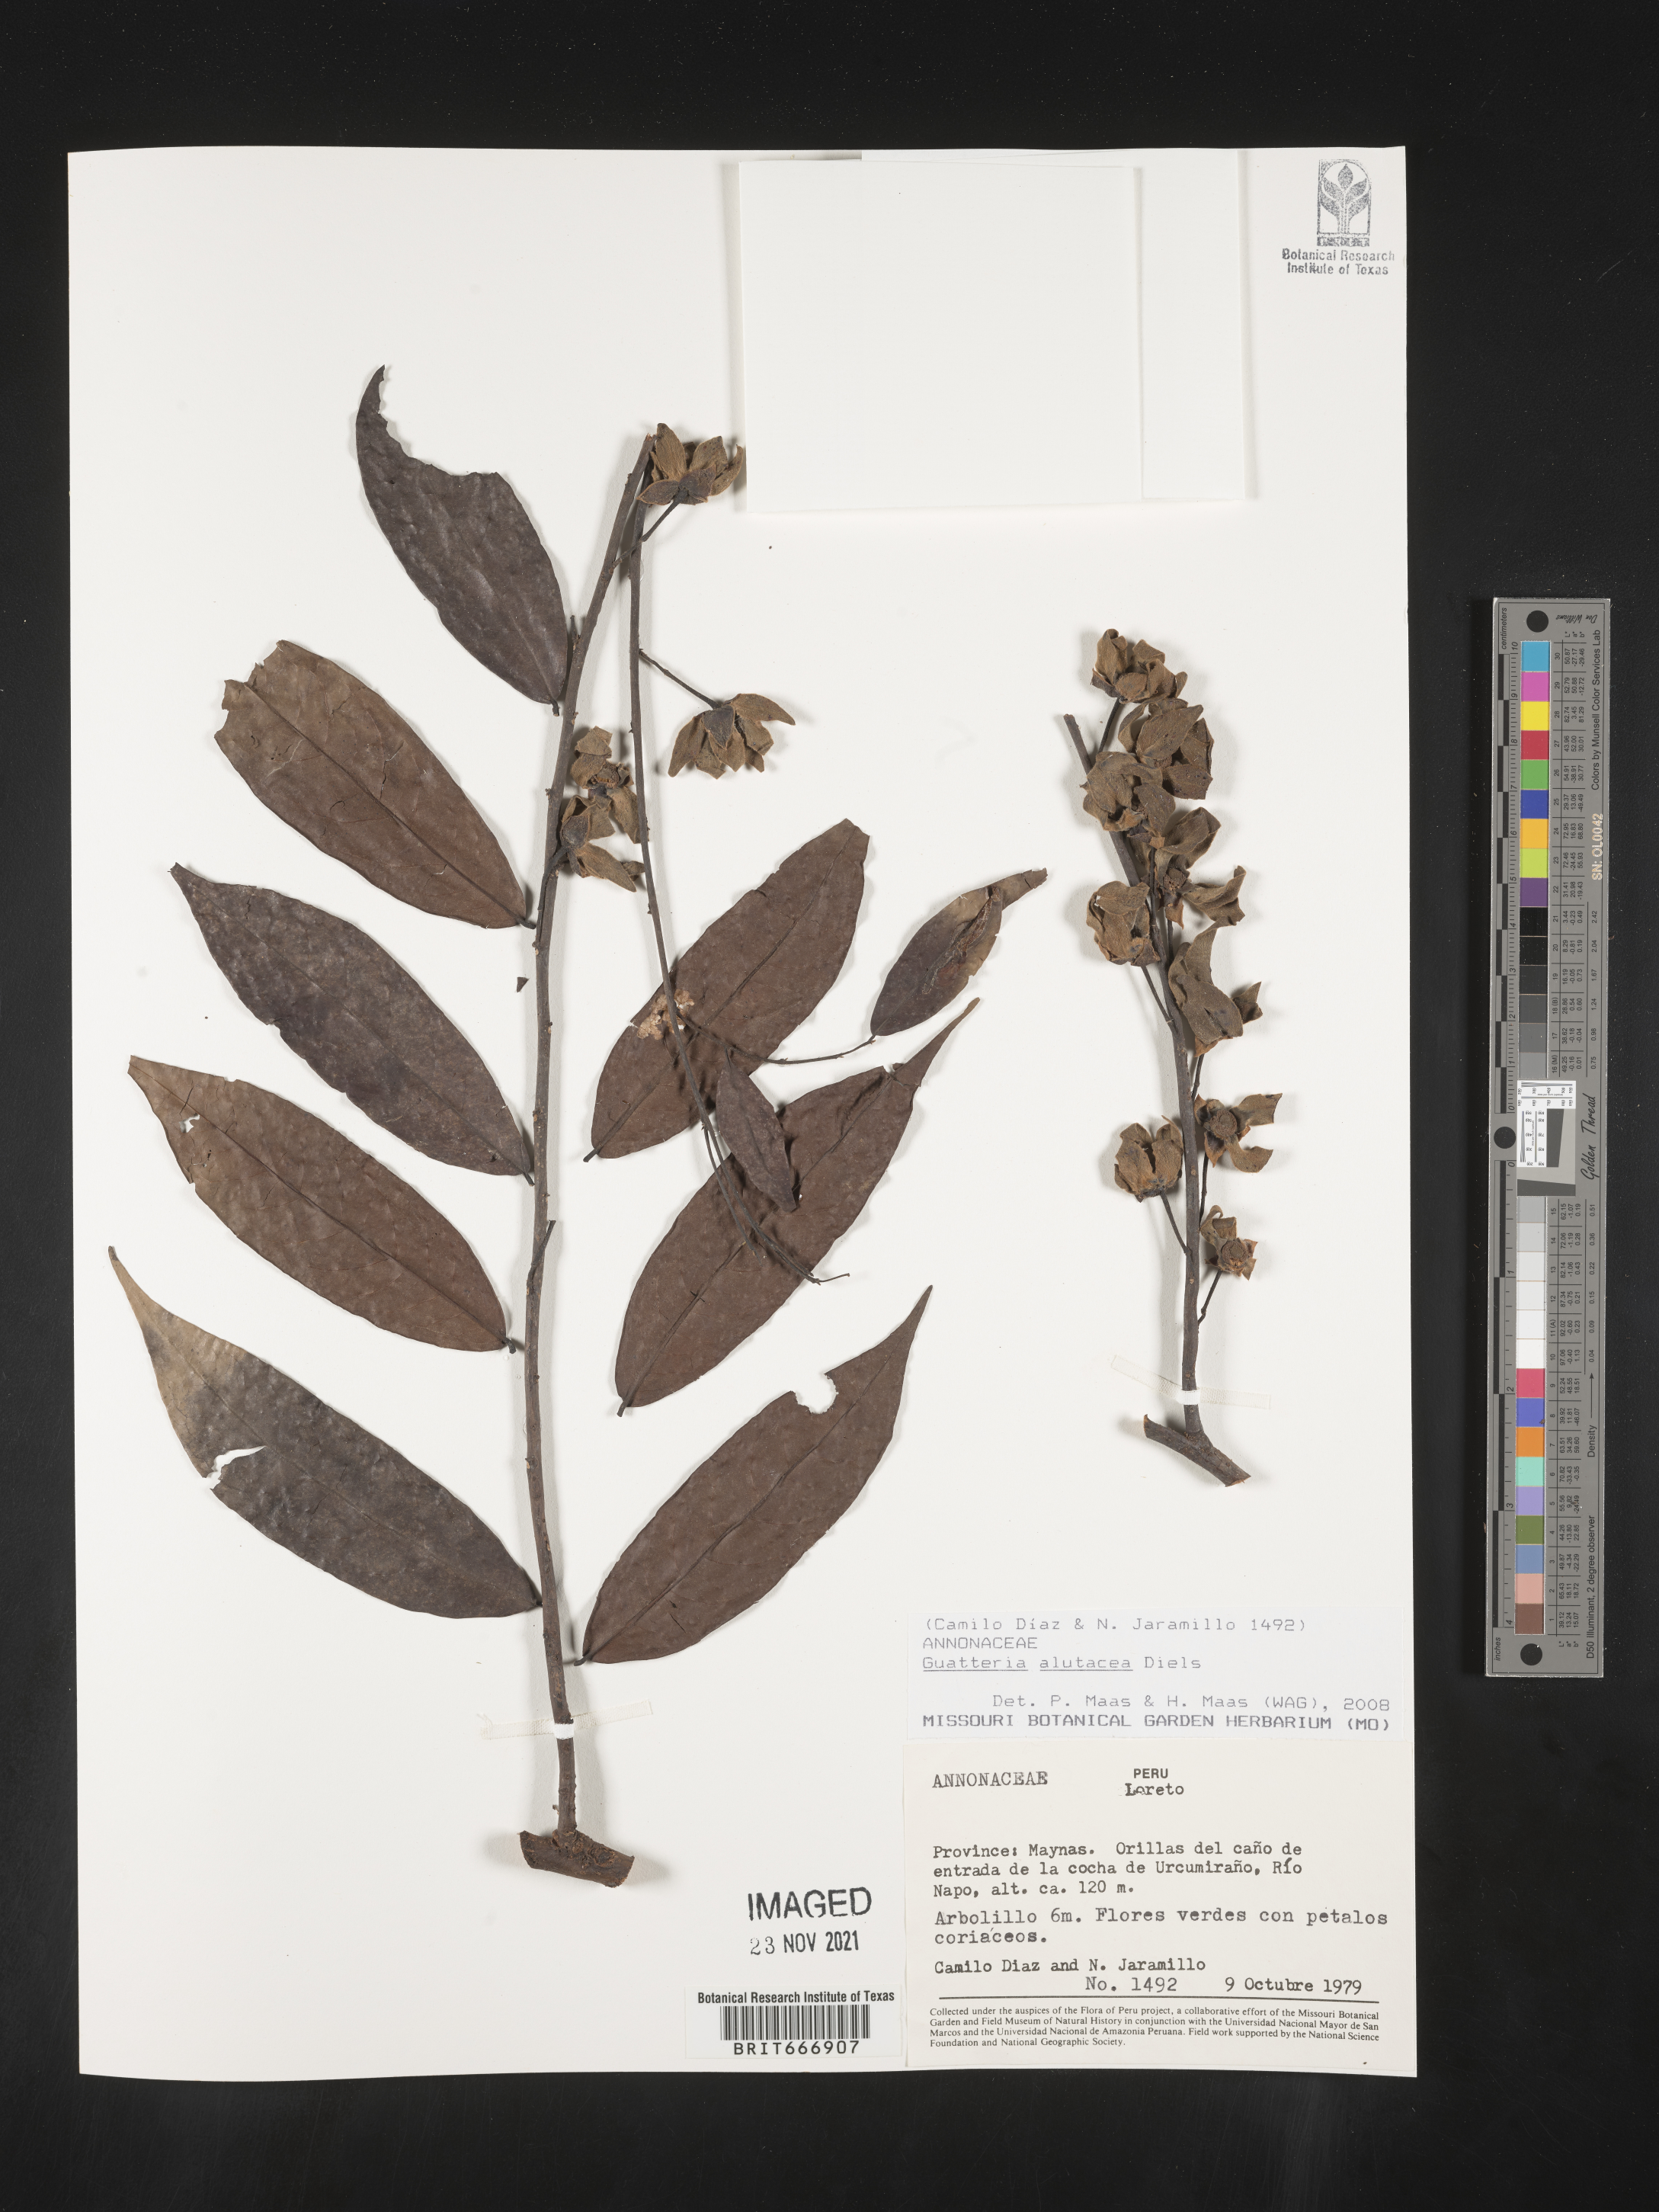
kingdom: Plantae
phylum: Tracheophyta
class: Magnoliopsida
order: Magnoliales
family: Annonaceae
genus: Guatteria
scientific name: Guatteria
